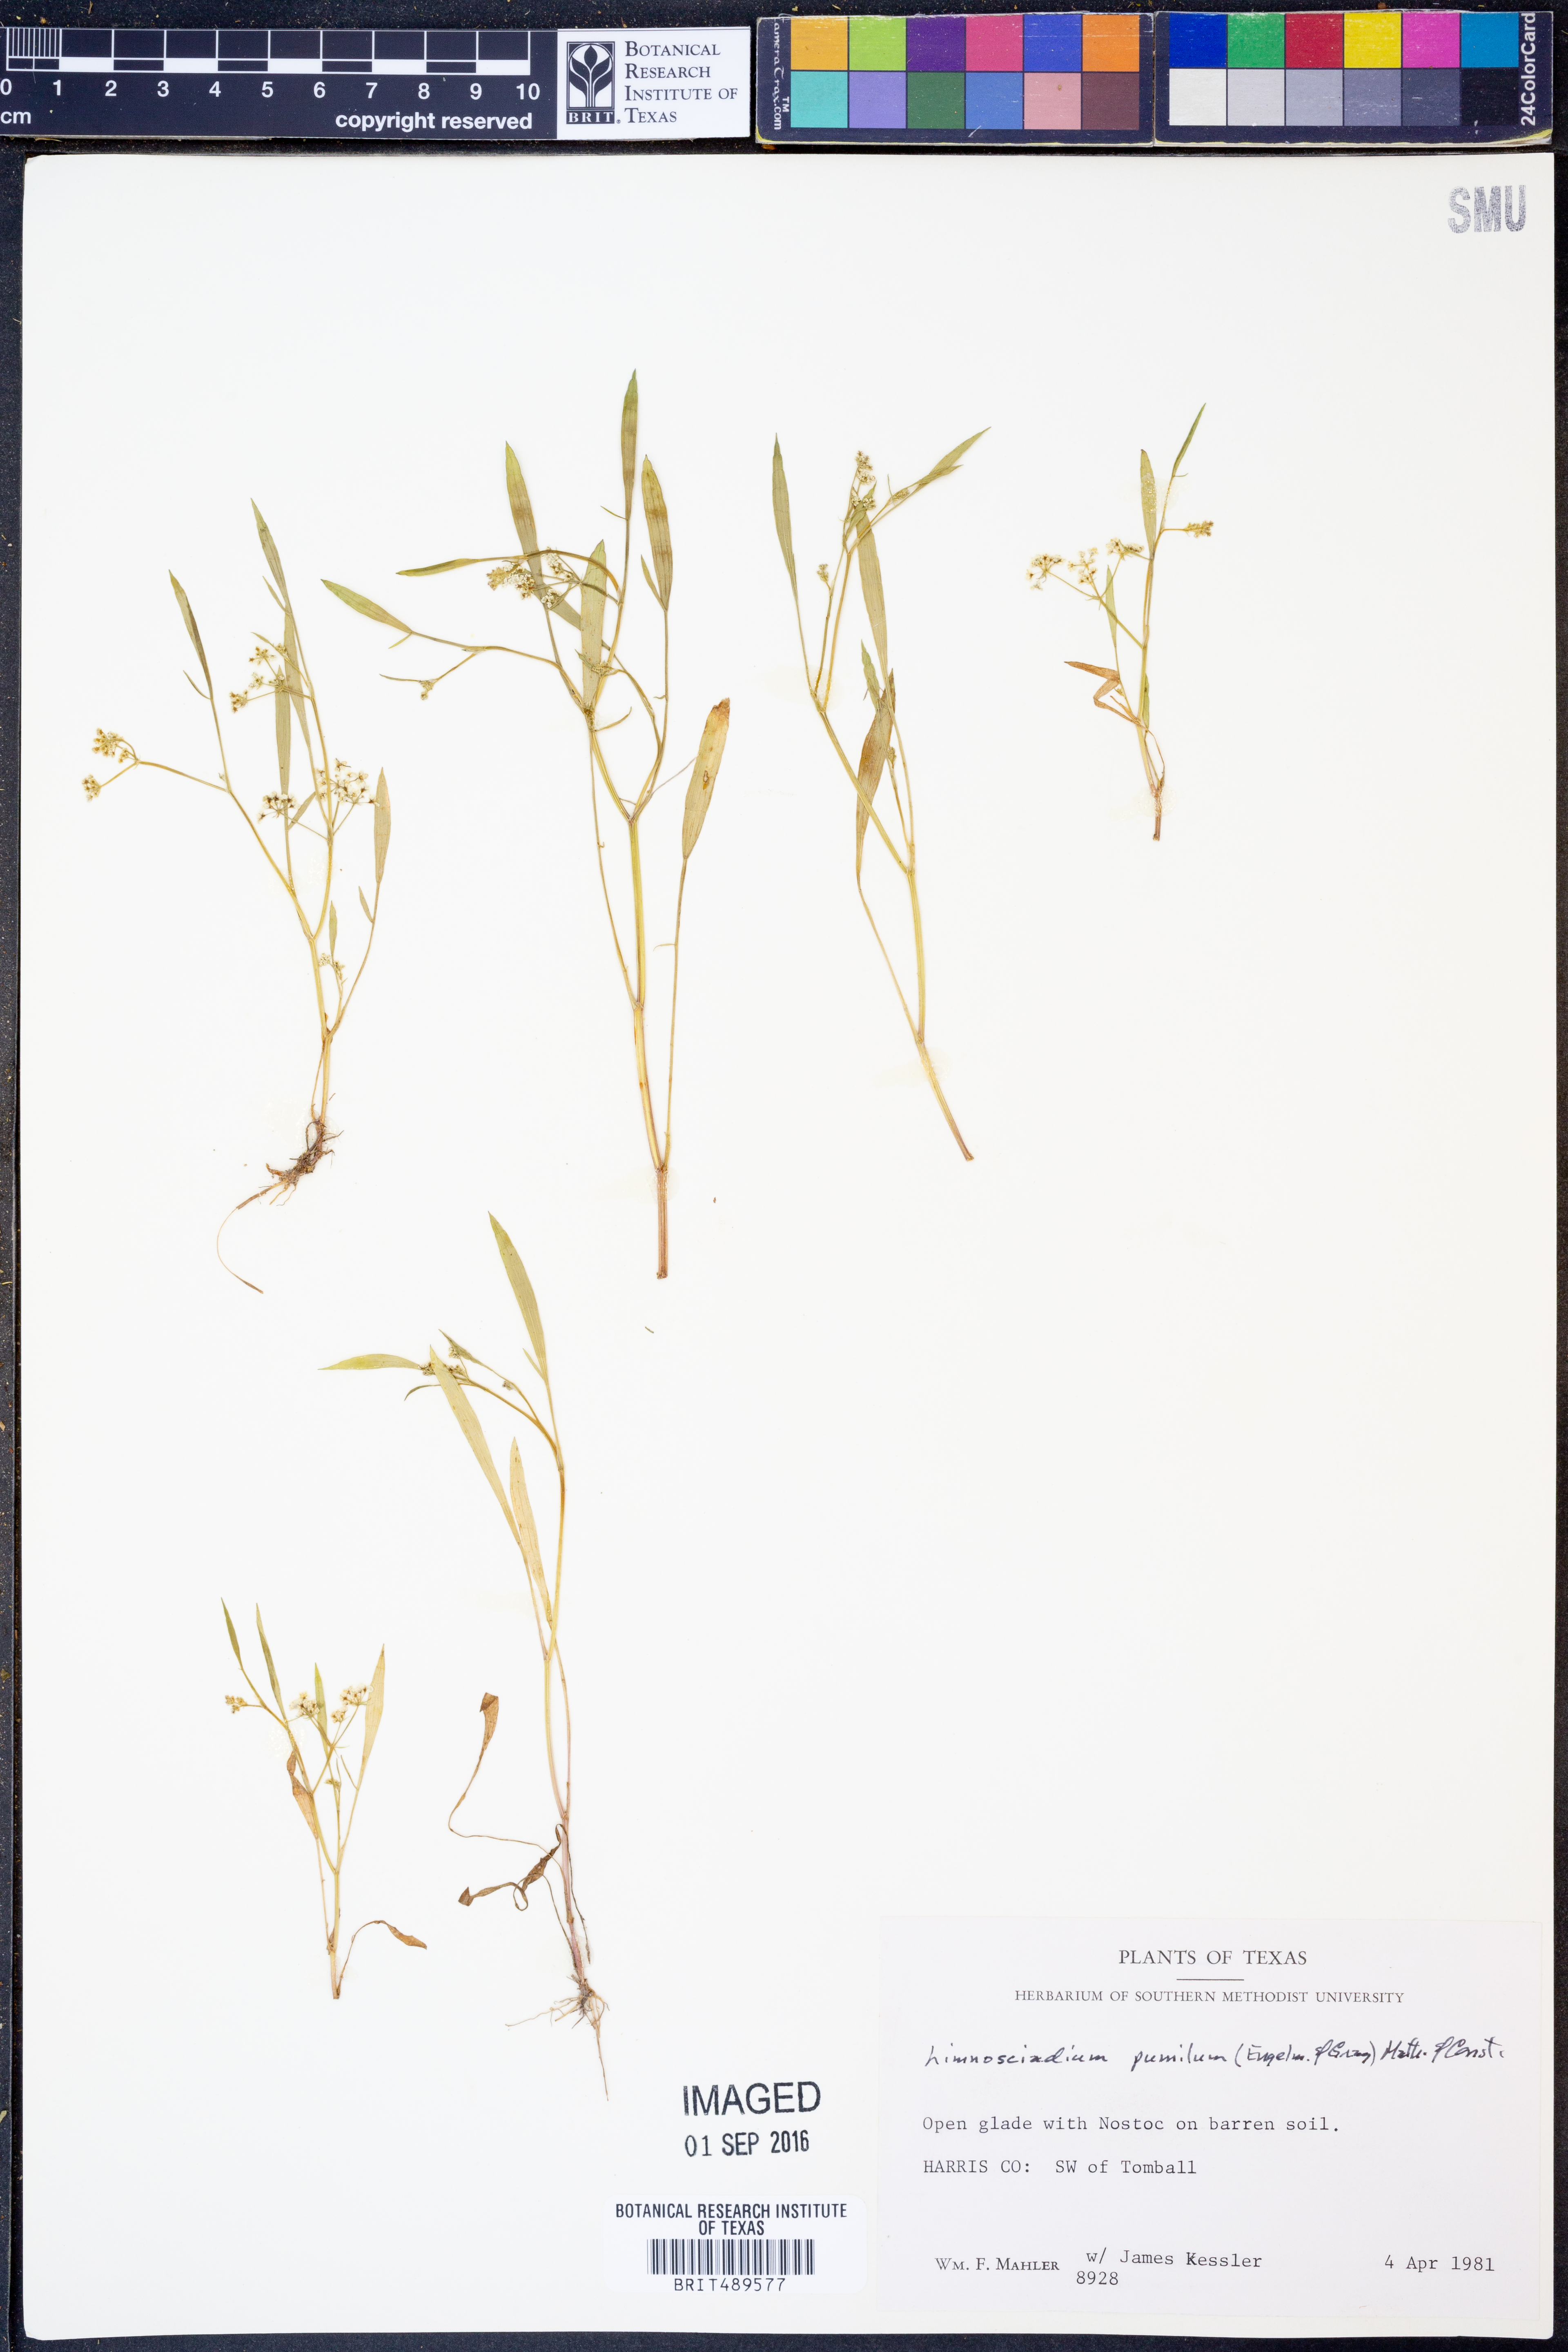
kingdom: Plantae
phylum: Tracheophyta
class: Magnoliopsida
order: Apiales
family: Apiaceae
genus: Limnosciadium
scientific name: Limnosciadium pinnatum
